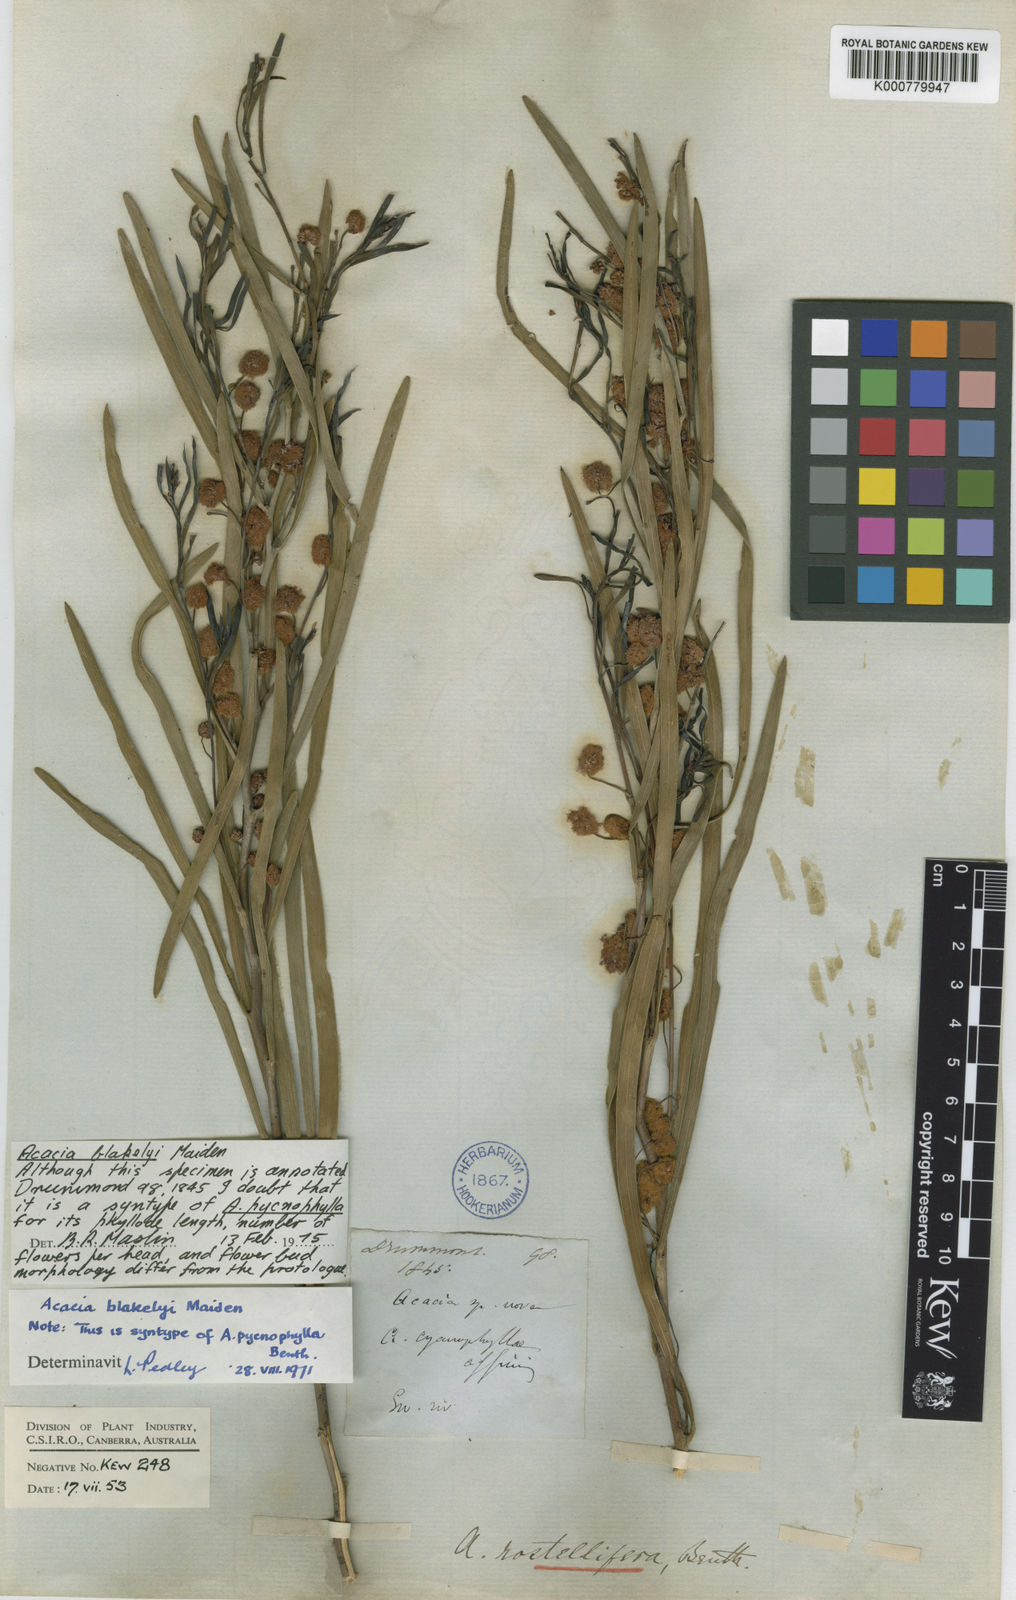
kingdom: Plantae
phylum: Tracheophyta
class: Magnoliopsida
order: Fabales
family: Fabaceae
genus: Acacia
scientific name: Acacia blakelyi
